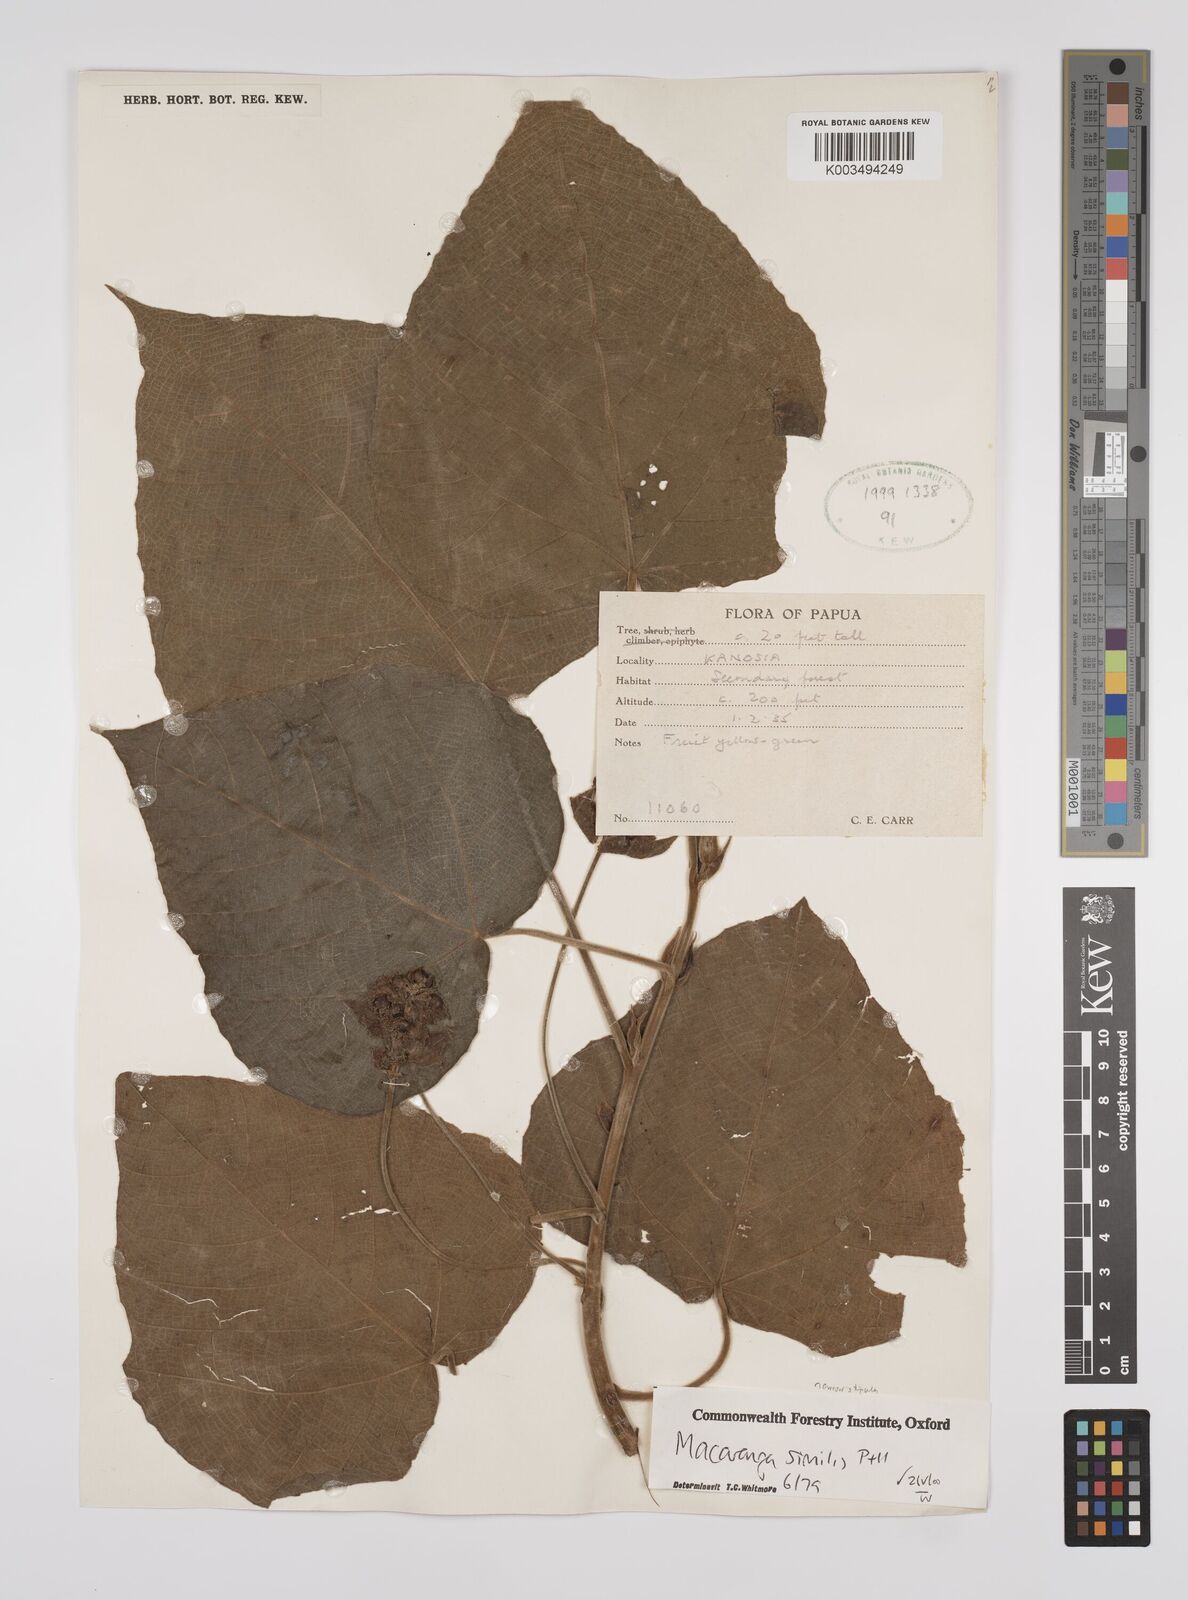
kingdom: Plantae
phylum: Tracheophyta
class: Magnoliopsida
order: Malpighiales
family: Euphorbiaceae
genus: Macaranga
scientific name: Macaranga similis
